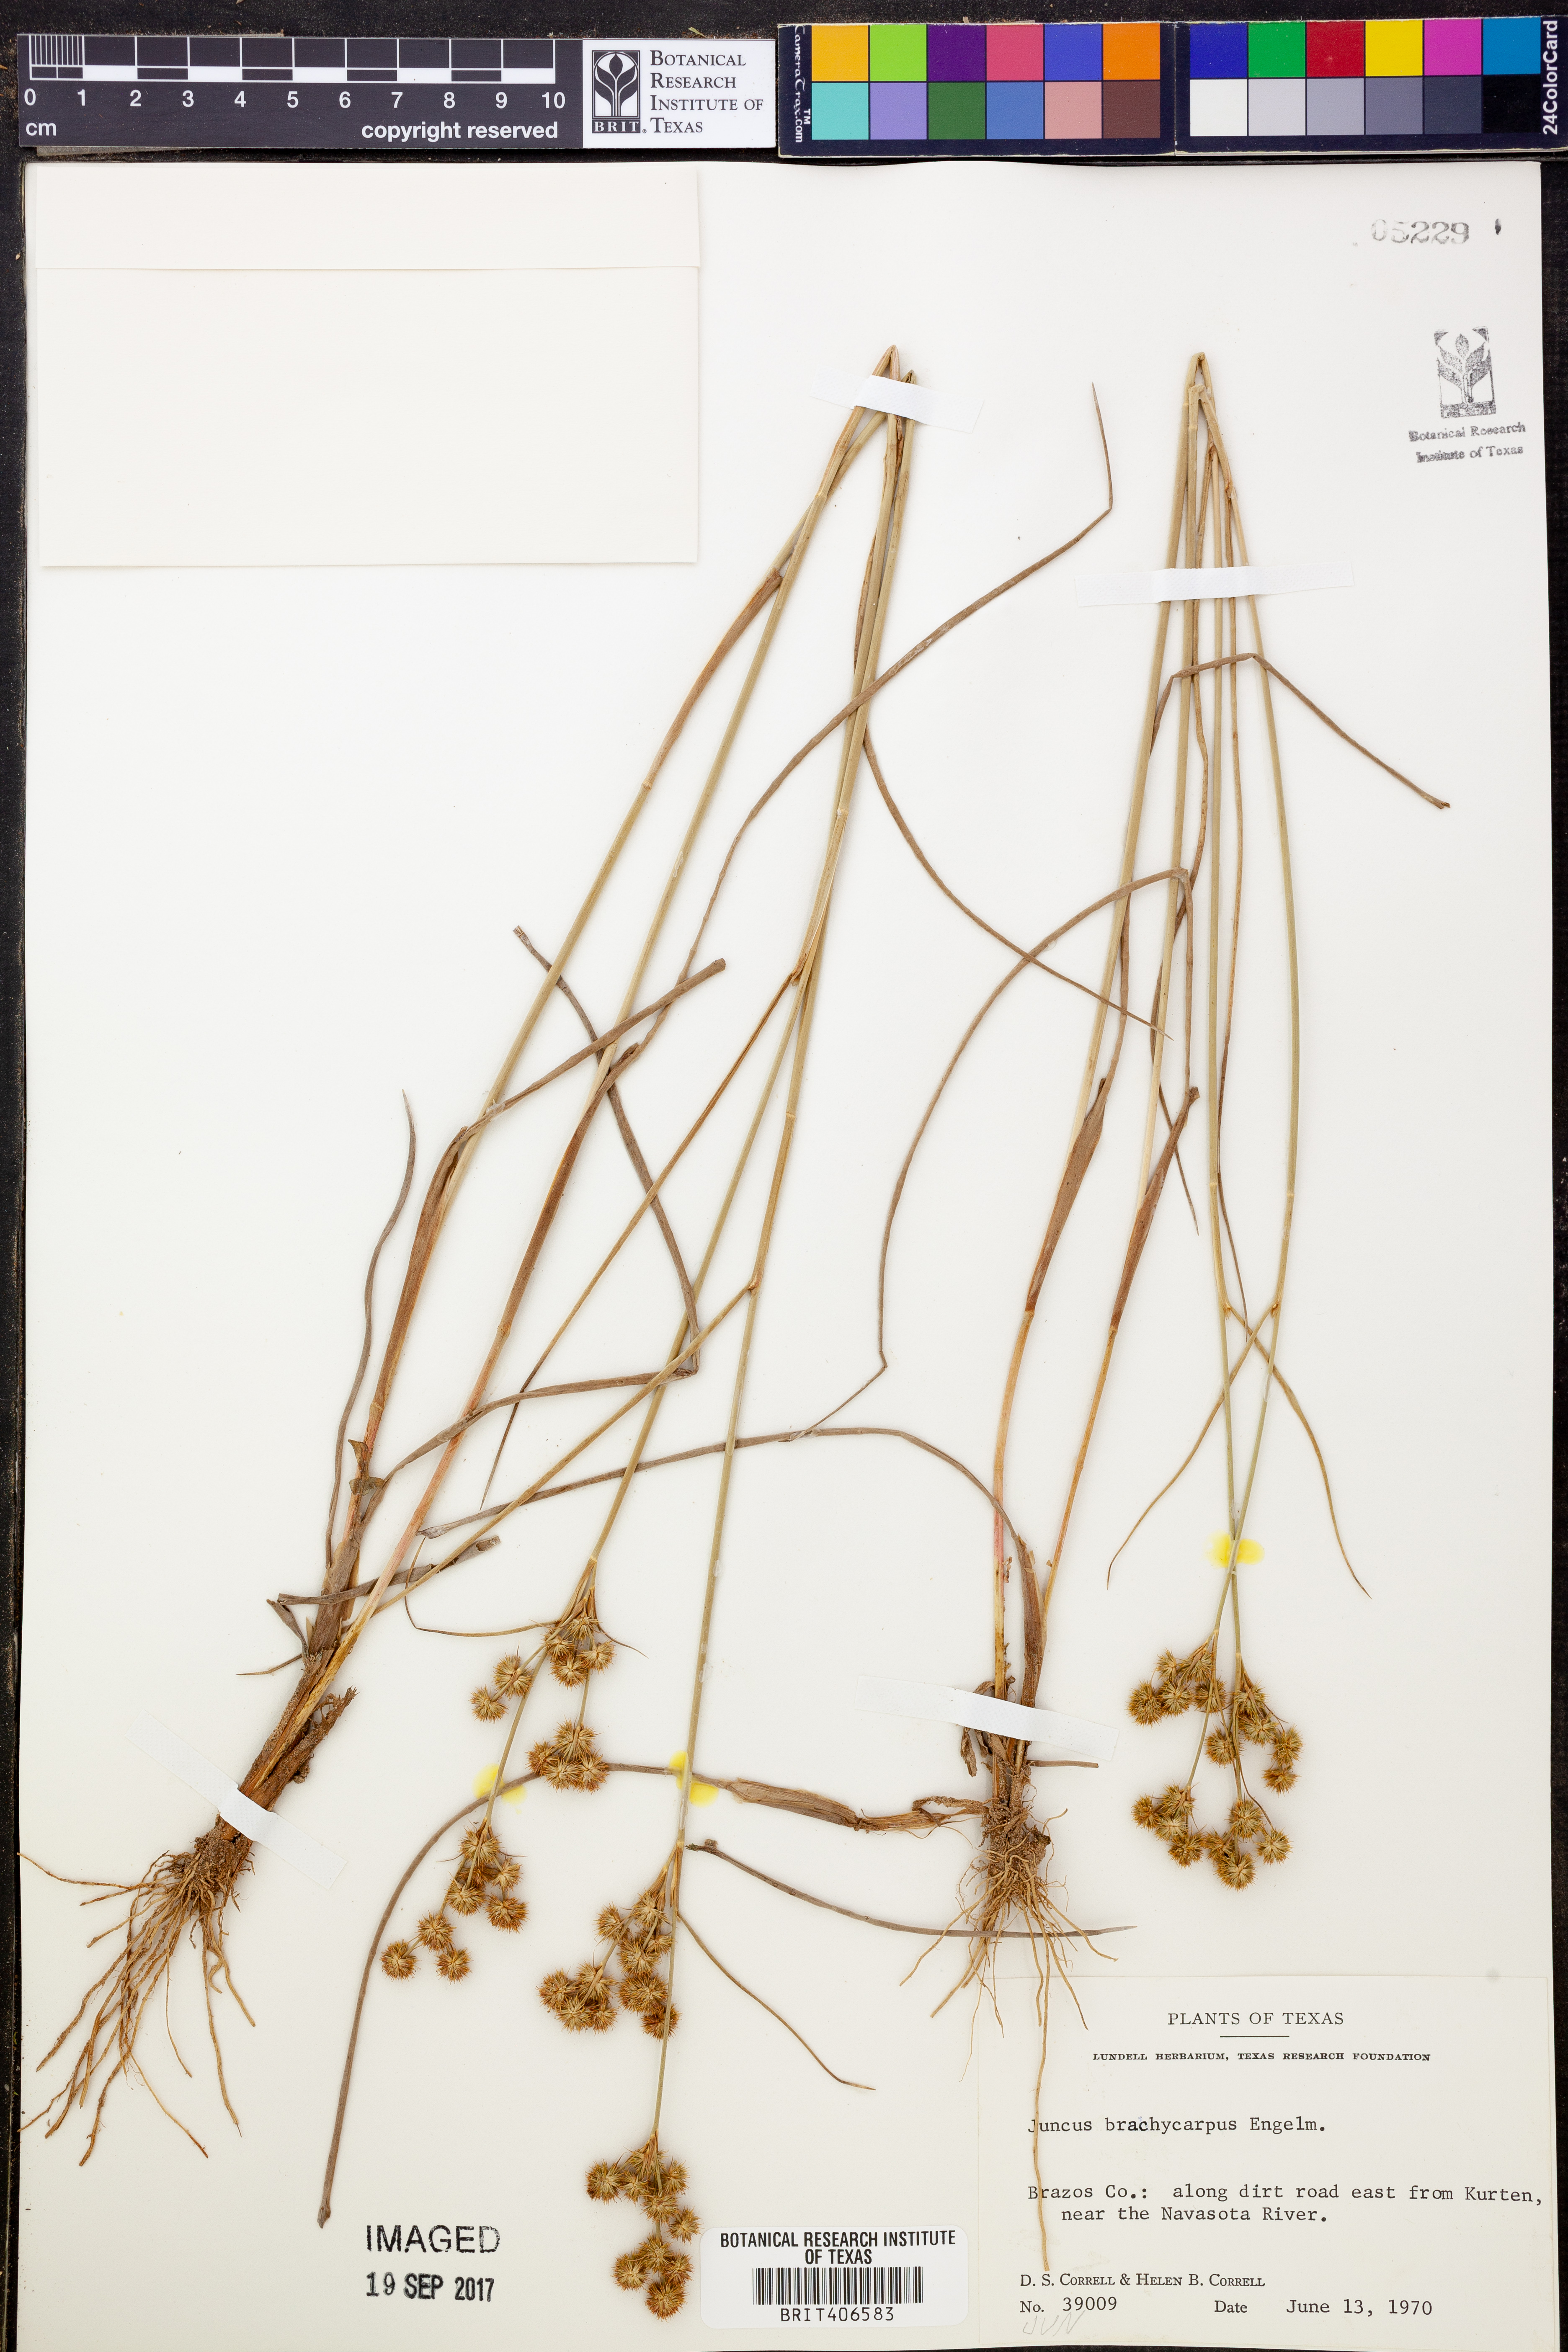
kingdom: Plantae
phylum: Tracheophyta
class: Liliopsida
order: Poales
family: Juncaceae
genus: Juncus
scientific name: Juncus brachycarpus
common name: Shore rush
